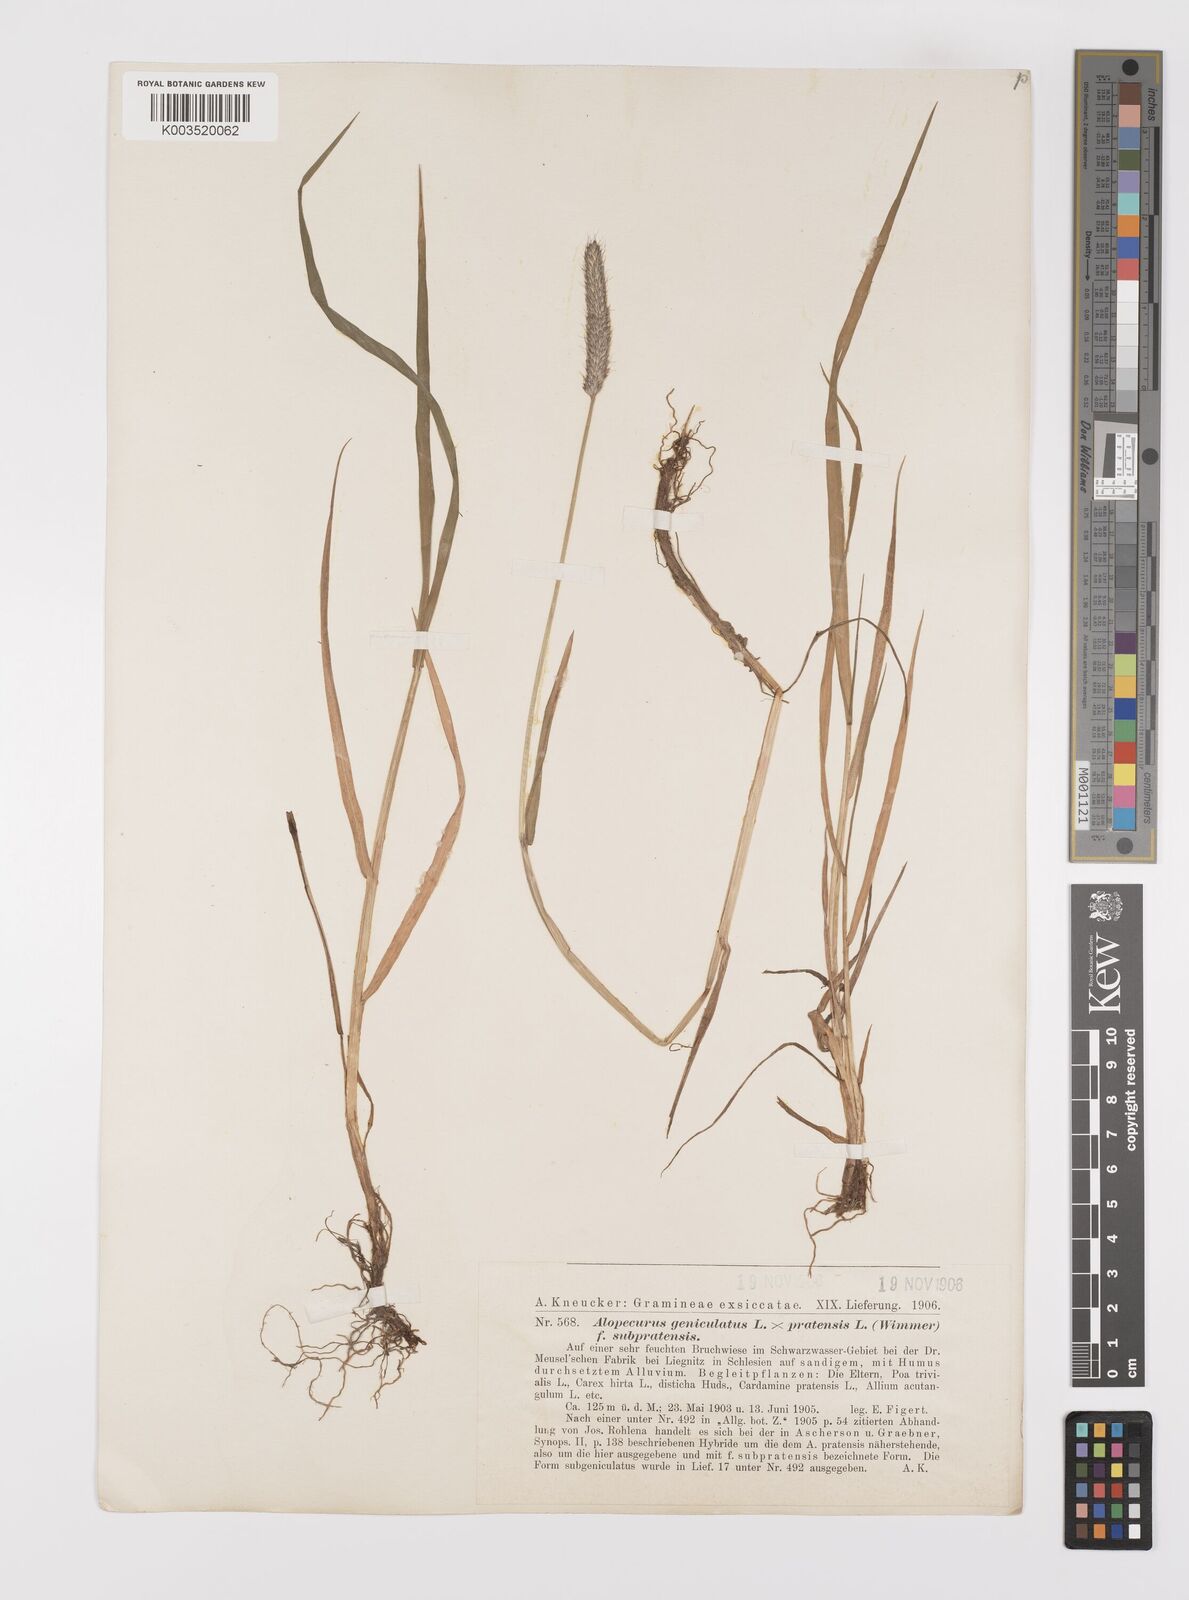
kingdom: Plantae
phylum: Tracheophyta
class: Liliopsida
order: Poales
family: Poaceae
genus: Alopecurus
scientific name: Alopecurus brachystylus
